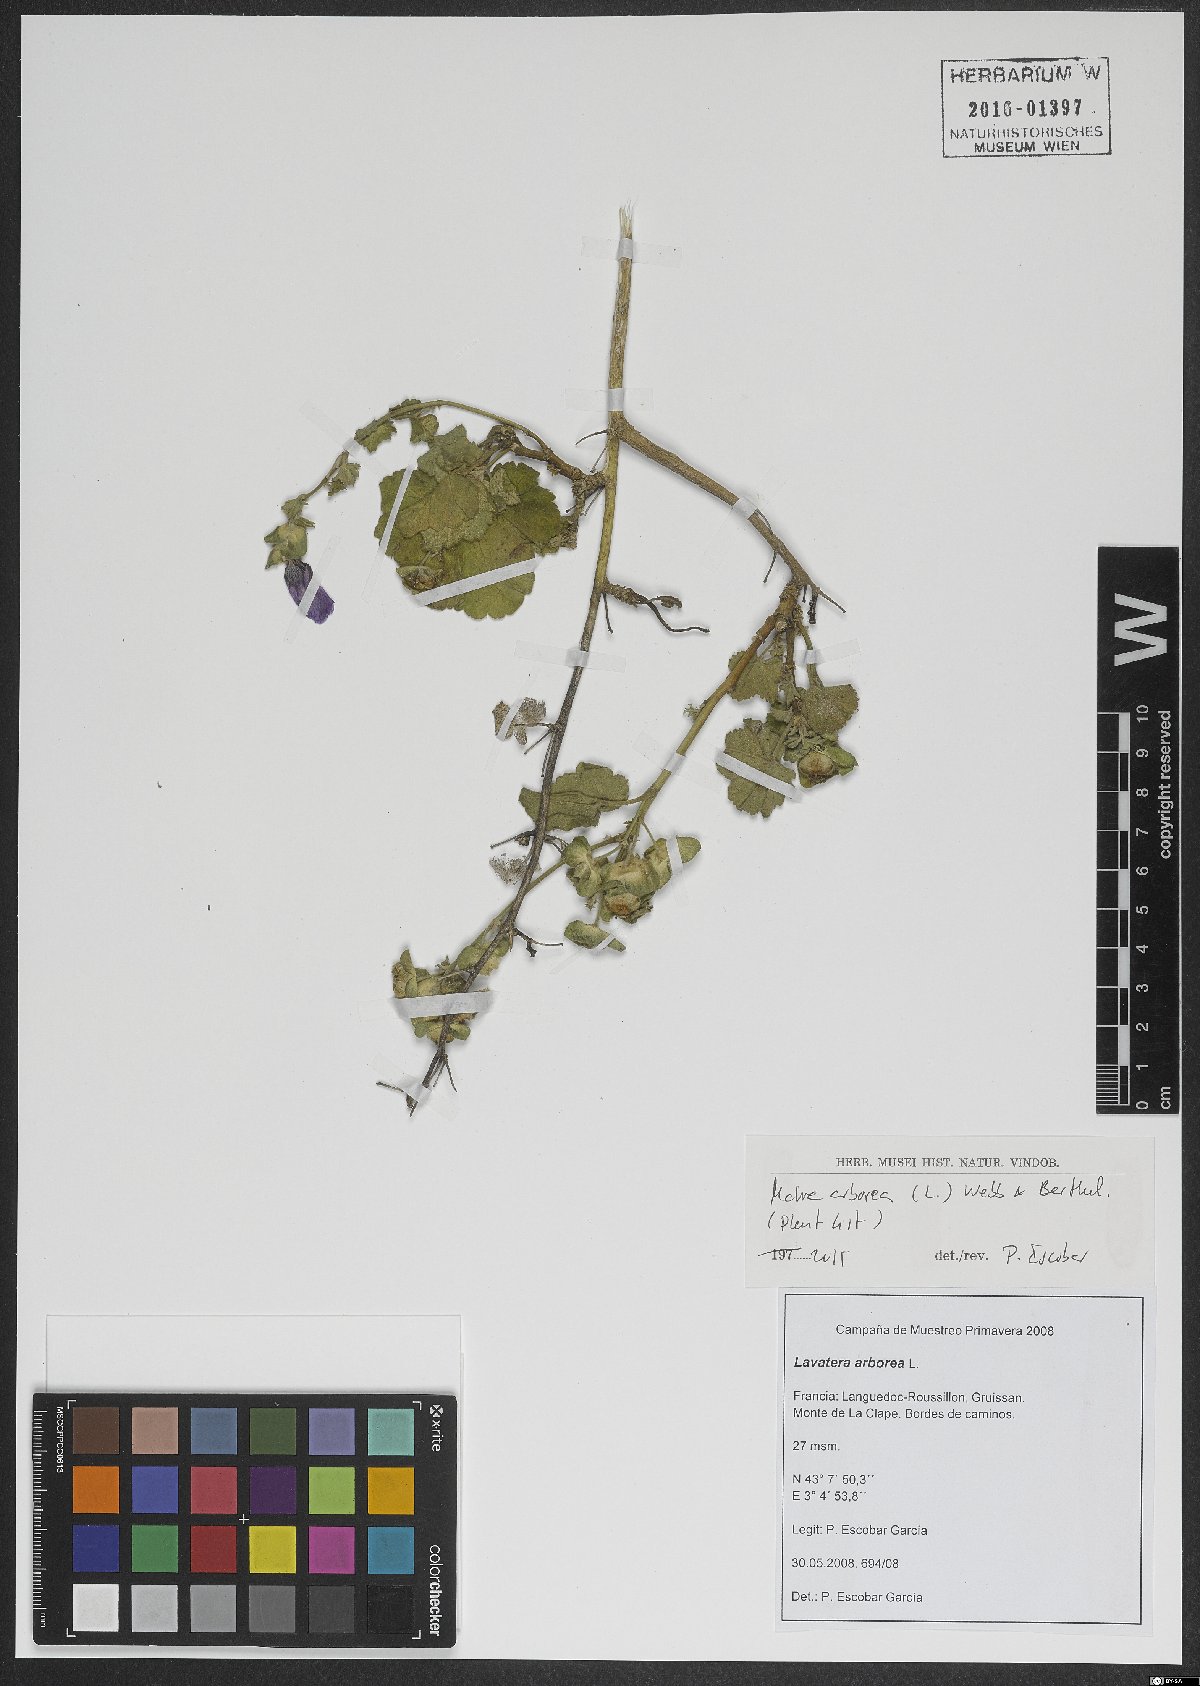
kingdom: Plantae
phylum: Tracheophyta
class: Magnoliopsida
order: Malvales
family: Malvaceae
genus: Malva
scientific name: Malva arborea
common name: Tree mallow
